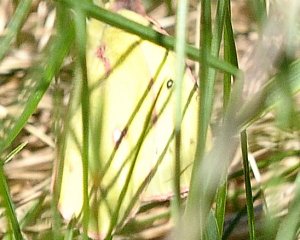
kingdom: Animalia
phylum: Arthropoda
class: Insecta
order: Lepidoptera
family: Pieridae
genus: Colias
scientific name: Colias philodice
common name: Clouded Sulphur
